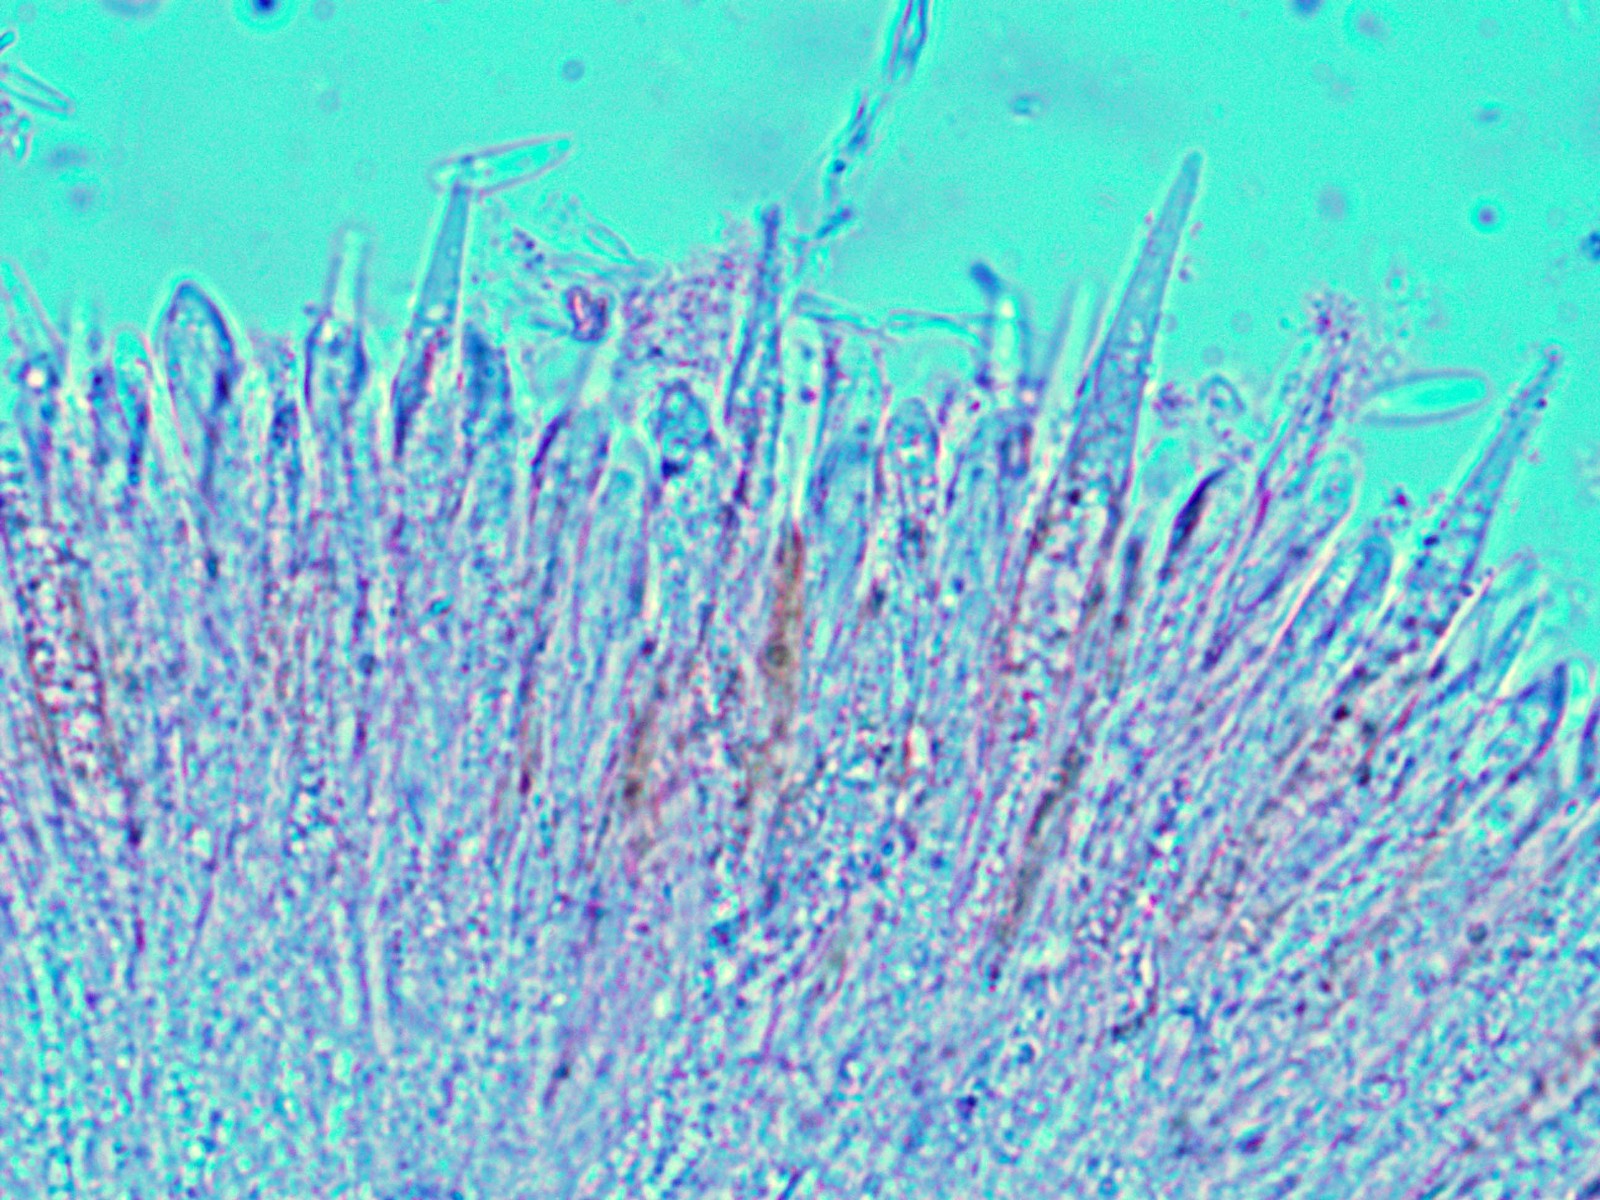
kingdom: Fungi
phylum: Ascomycota
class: Leotiomycetes
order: Helotiales
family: Lachnaceae
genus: Lachnum
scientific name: Lachnum virgineum
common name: jomfru-frynseskive
